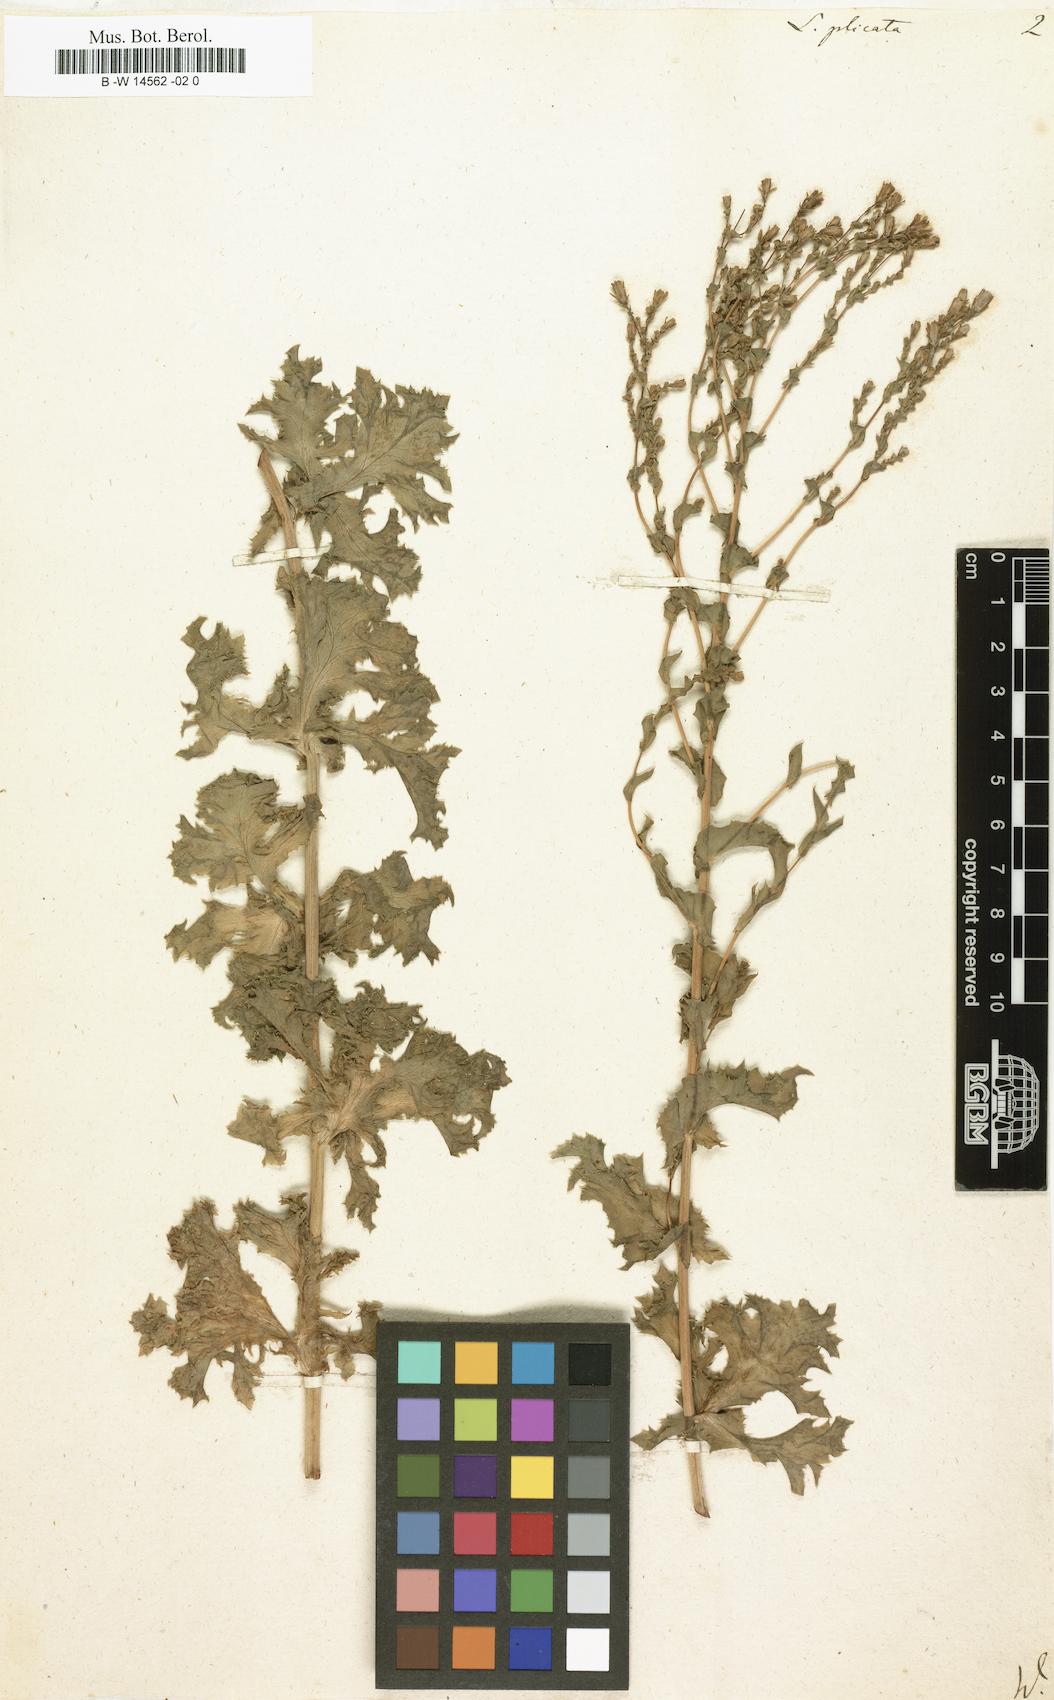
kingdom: Plantae
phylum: Tracheophyta
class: Magnoliopsida
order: Asterales
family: Asteraceae
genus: Lactuca
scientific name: Lactuca serriola
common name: Prickly lettuce
